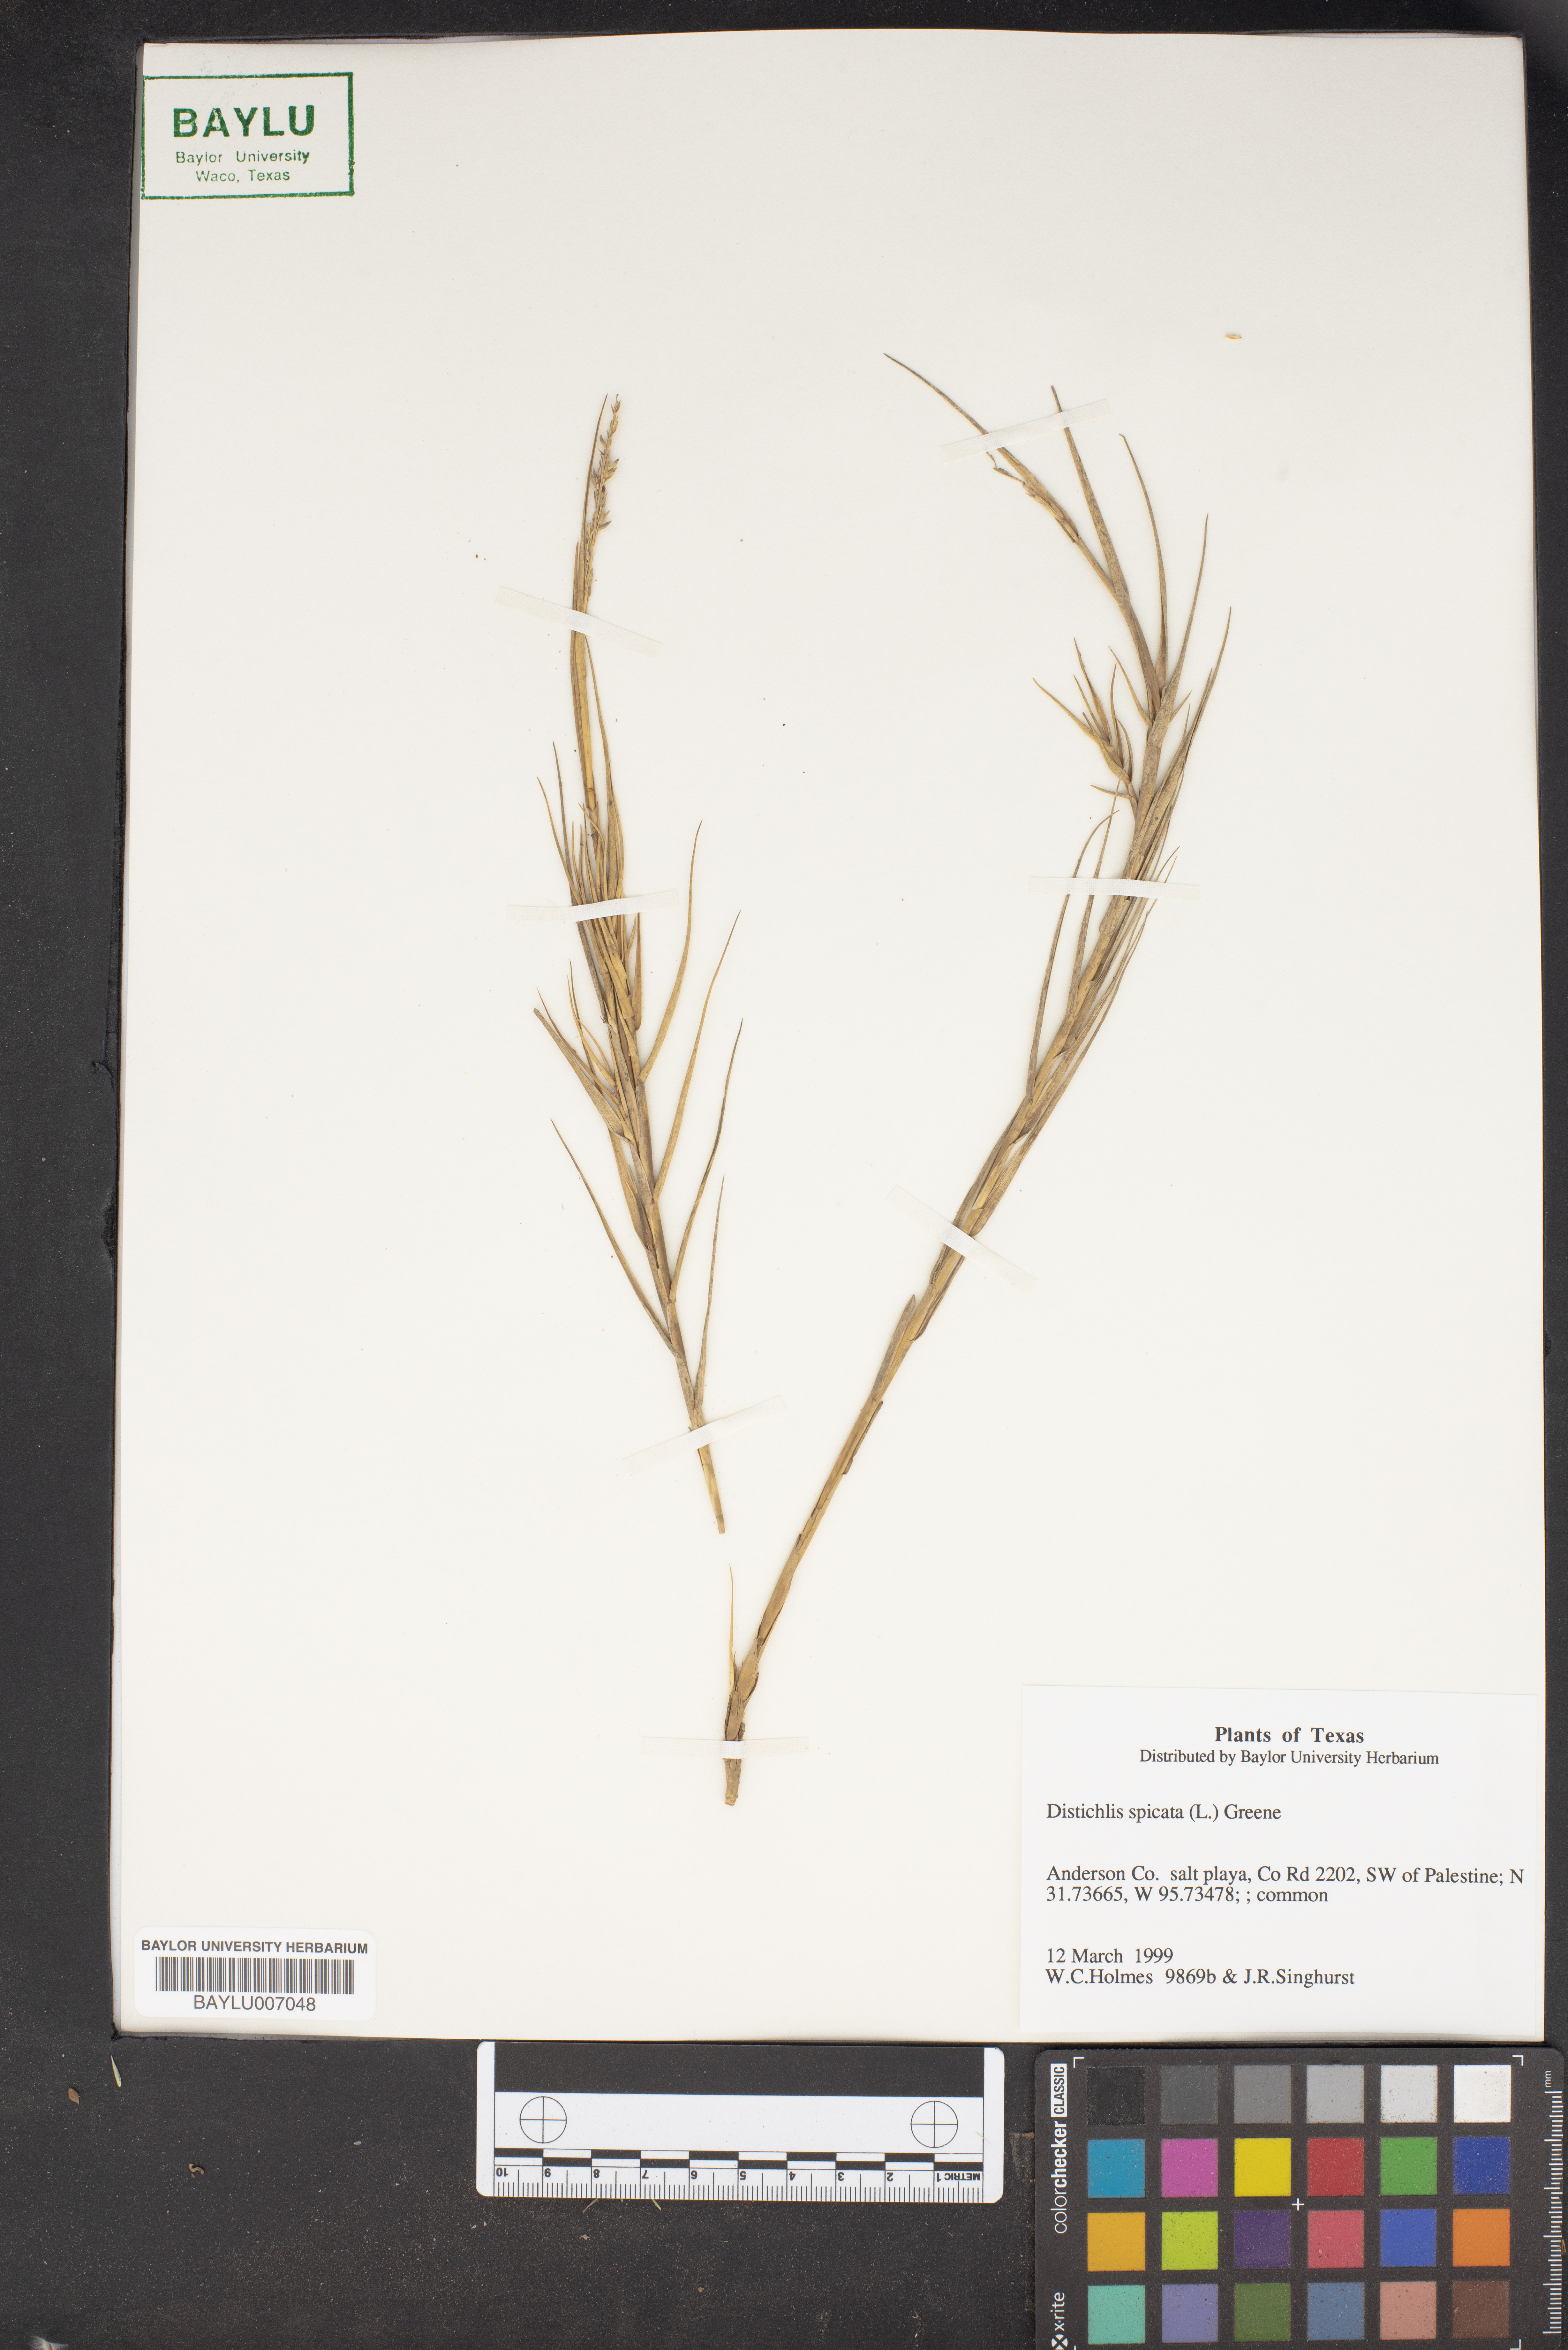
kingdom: Plantae
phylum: Tracheophyta
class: Liliopsida
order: Poales
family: Poaceae
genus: Distichlis
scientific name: Distichlis spicata
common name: Saltgrass
